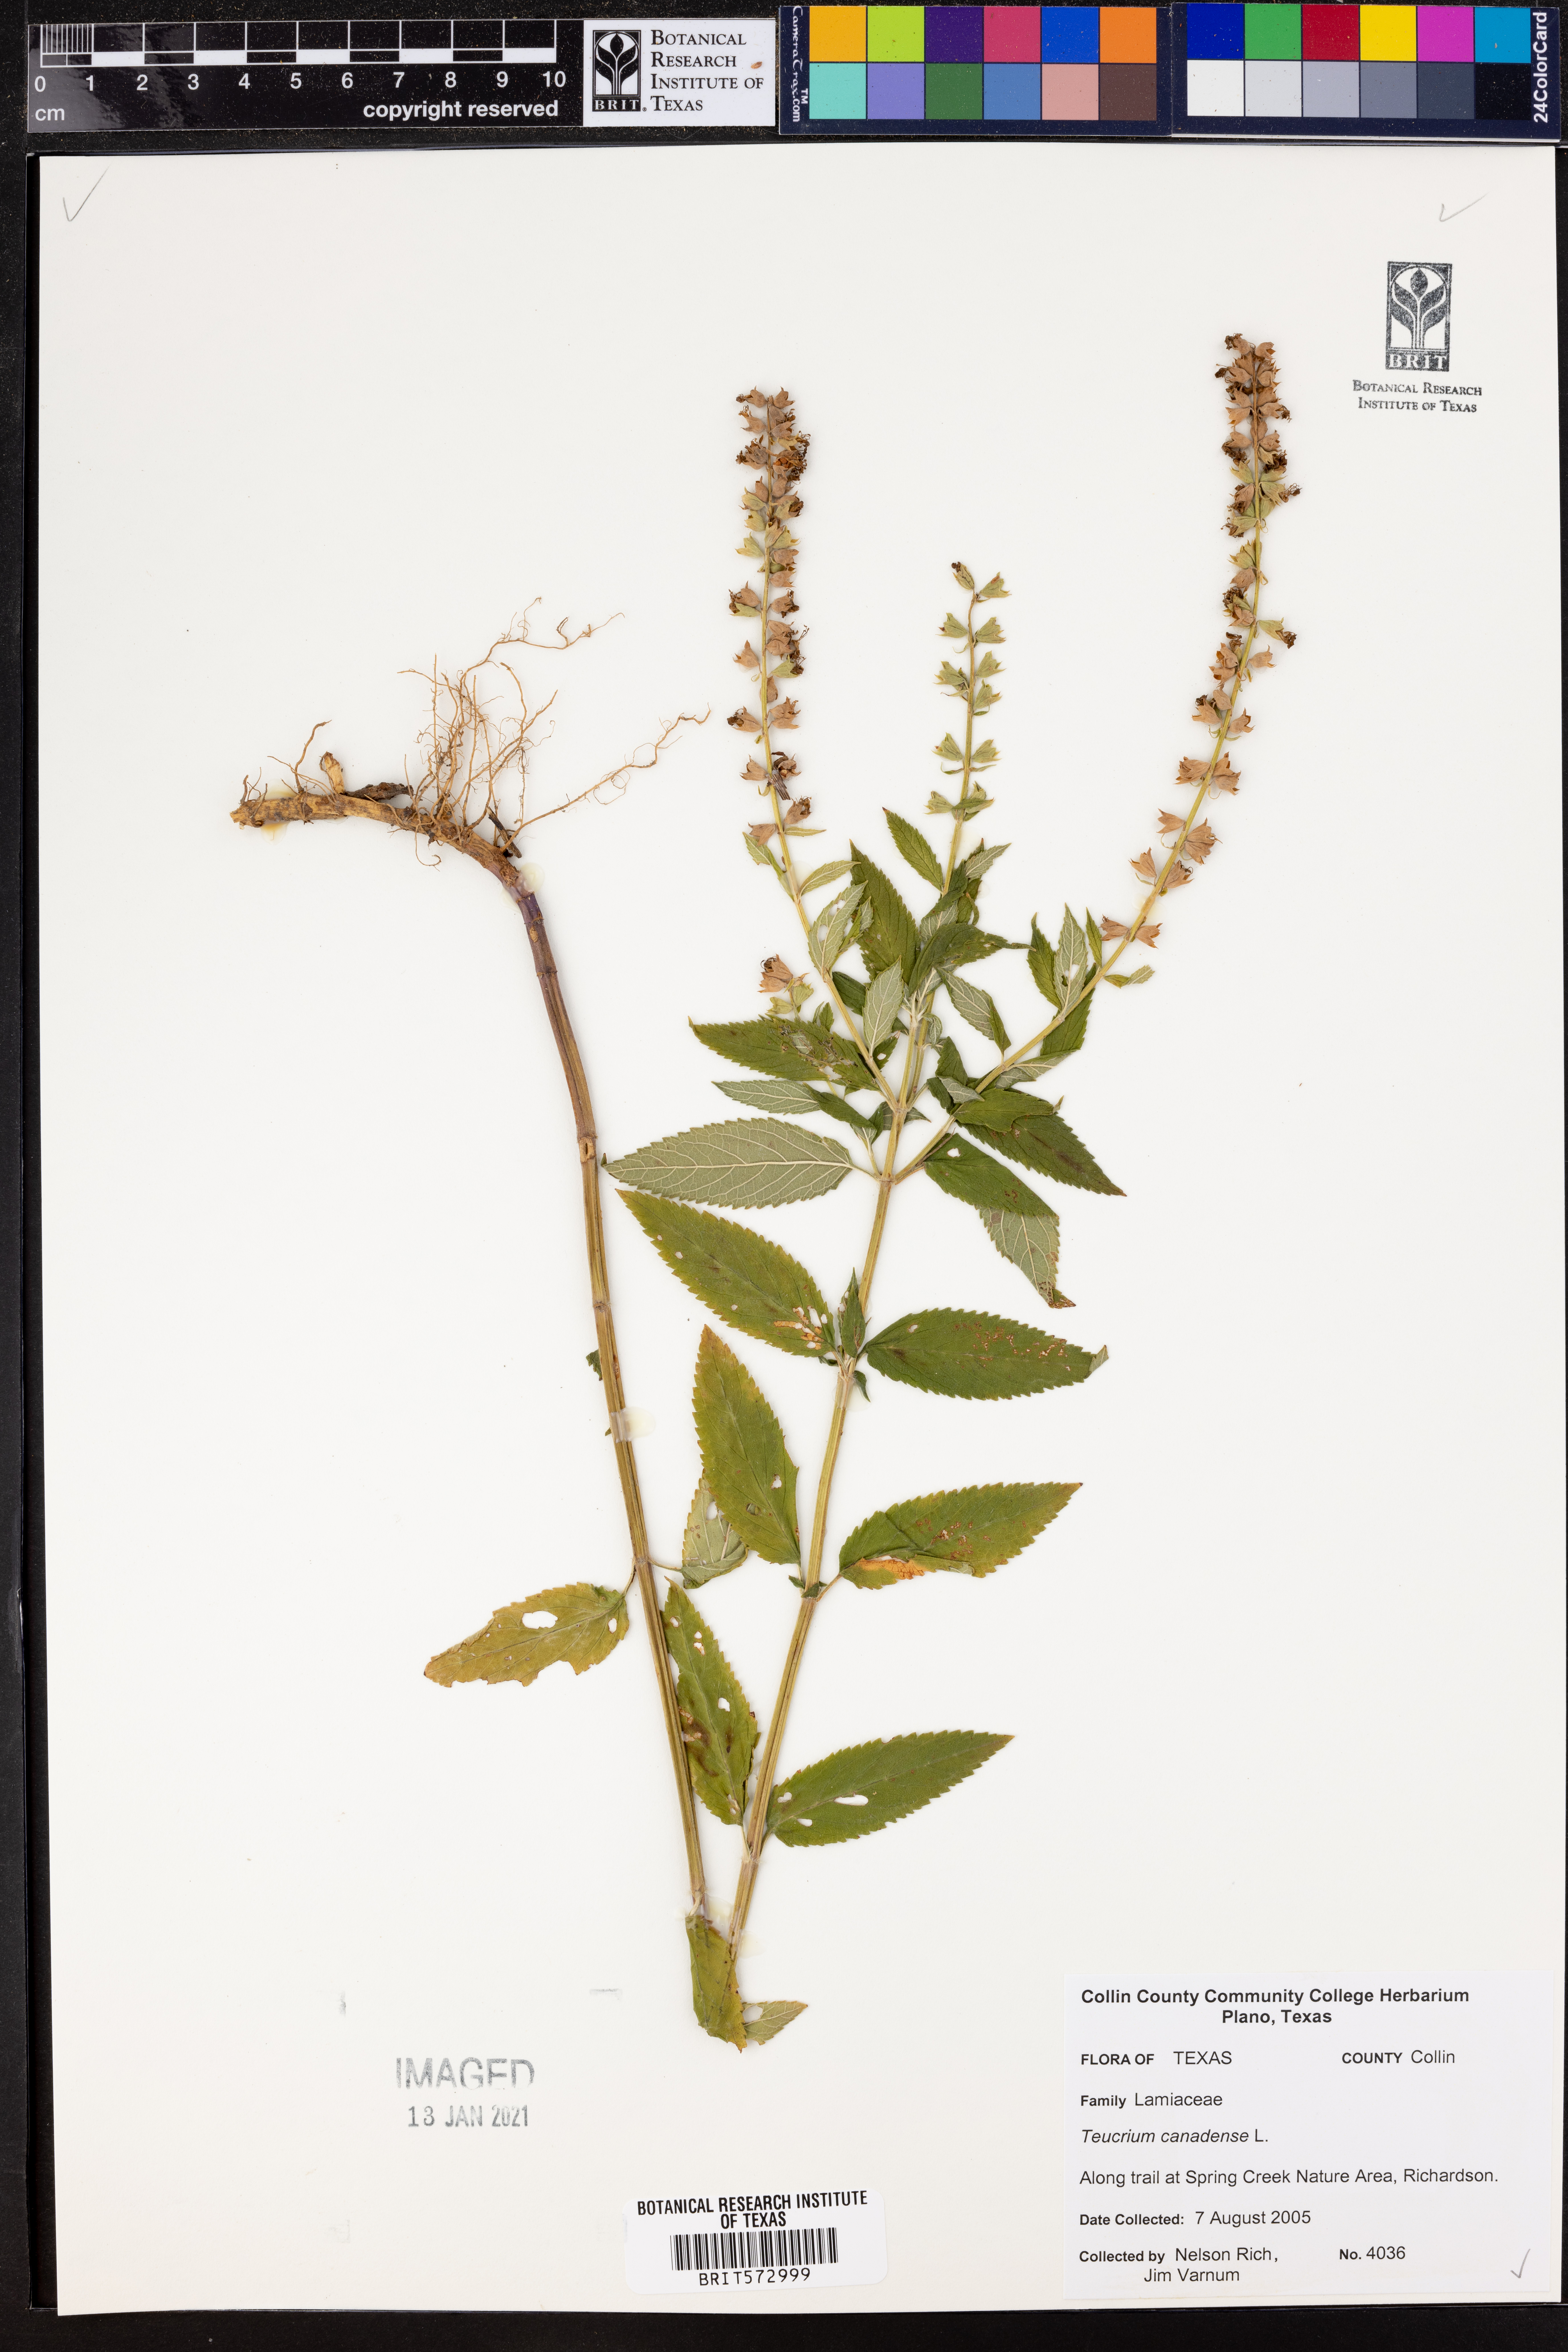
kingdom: Plantae
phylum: Tracheophyta
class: Magnoliopsida
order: Lamiales
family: Lamiaceae
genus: Teucrium
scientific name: Teucrium canadense
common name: American germander
